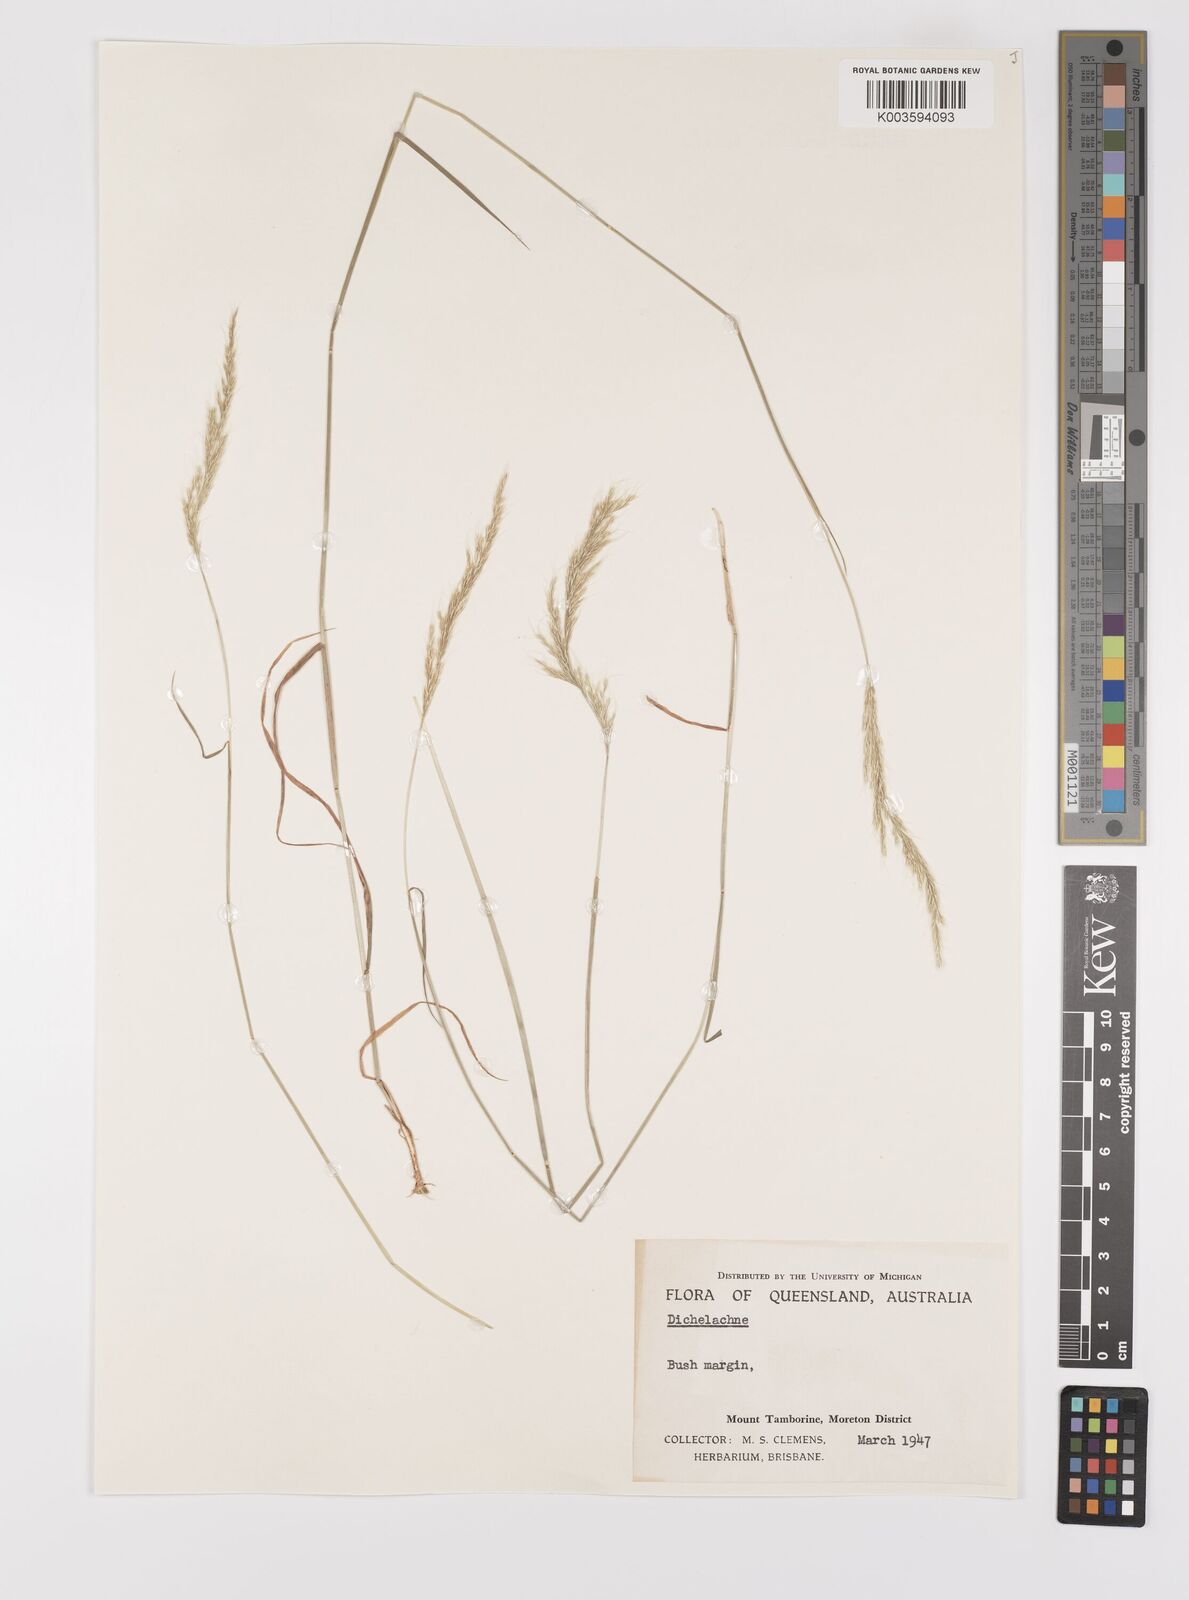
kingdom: Plantae
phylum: Tracheophyta
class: Liliopsida
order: Poales
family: Poaceae
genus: Dichelachne
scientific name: Dichelachne
